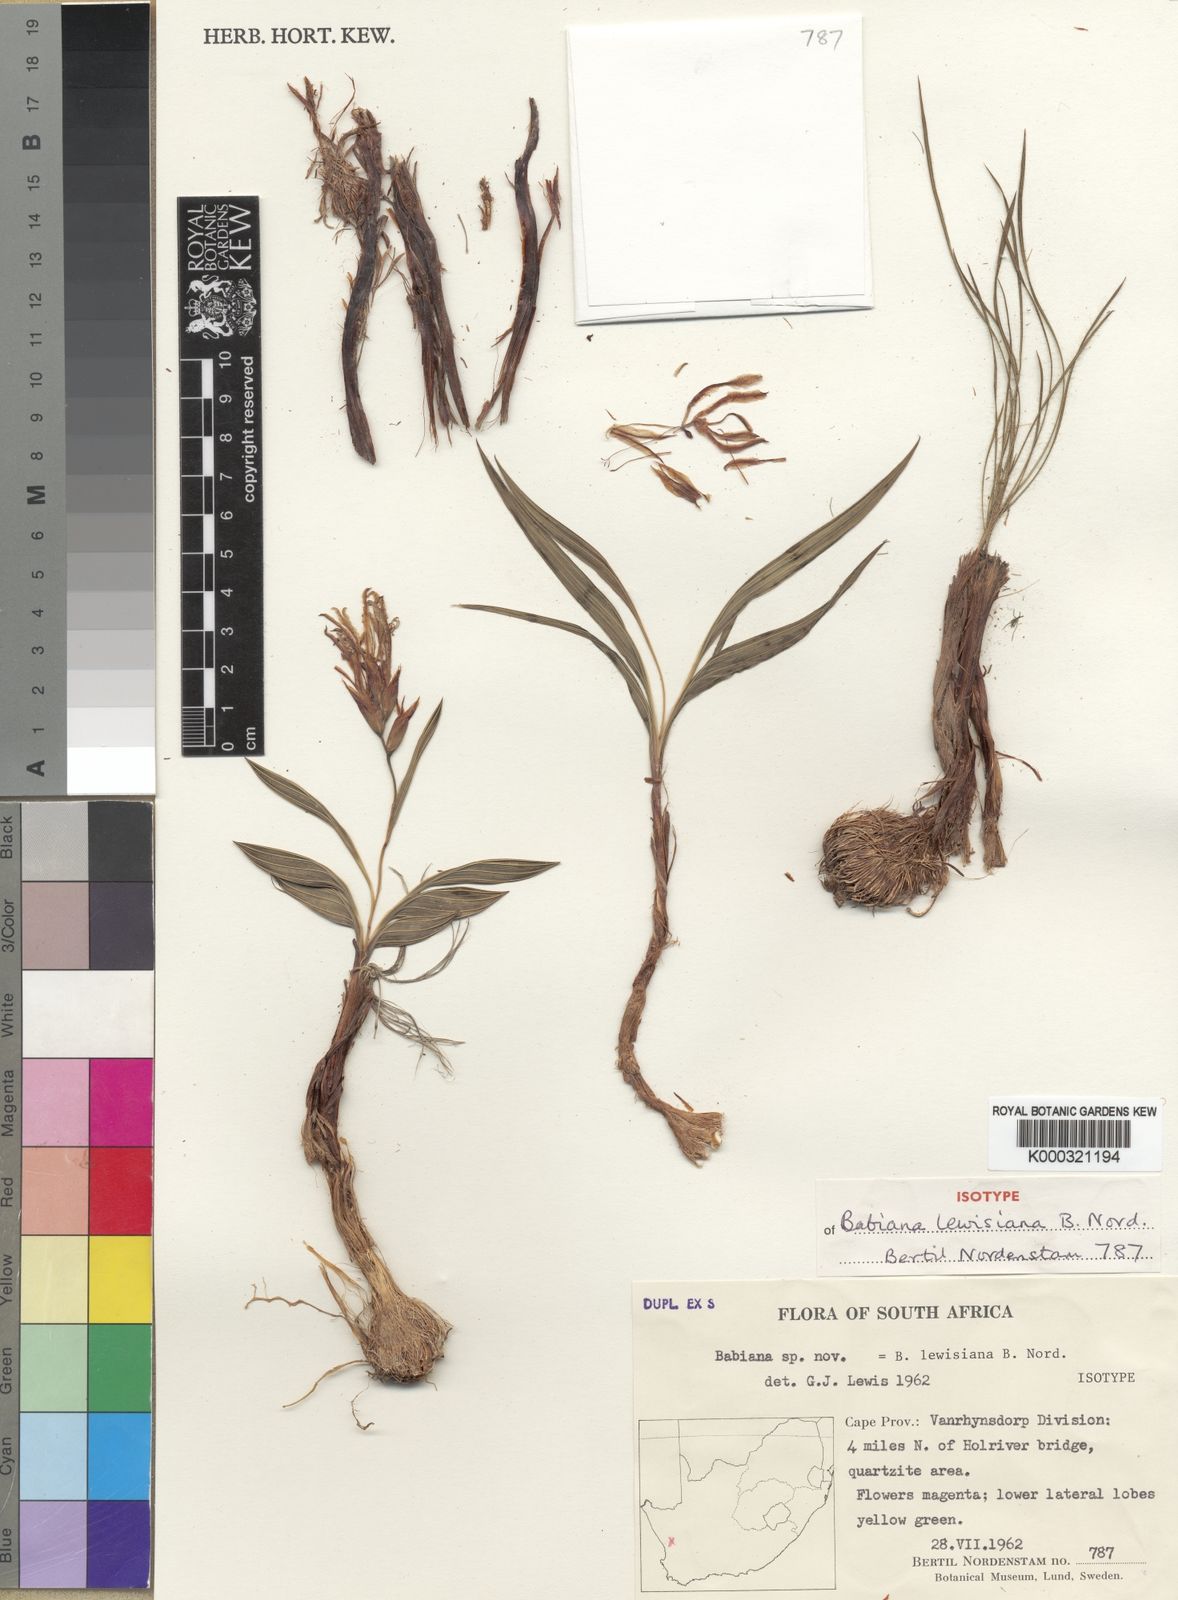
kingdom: Plantae
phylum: Tracheophyta
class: Liliopsida
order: Asparagales
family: Iridaceae
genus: Babiana
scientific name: Babiana lewisiana
